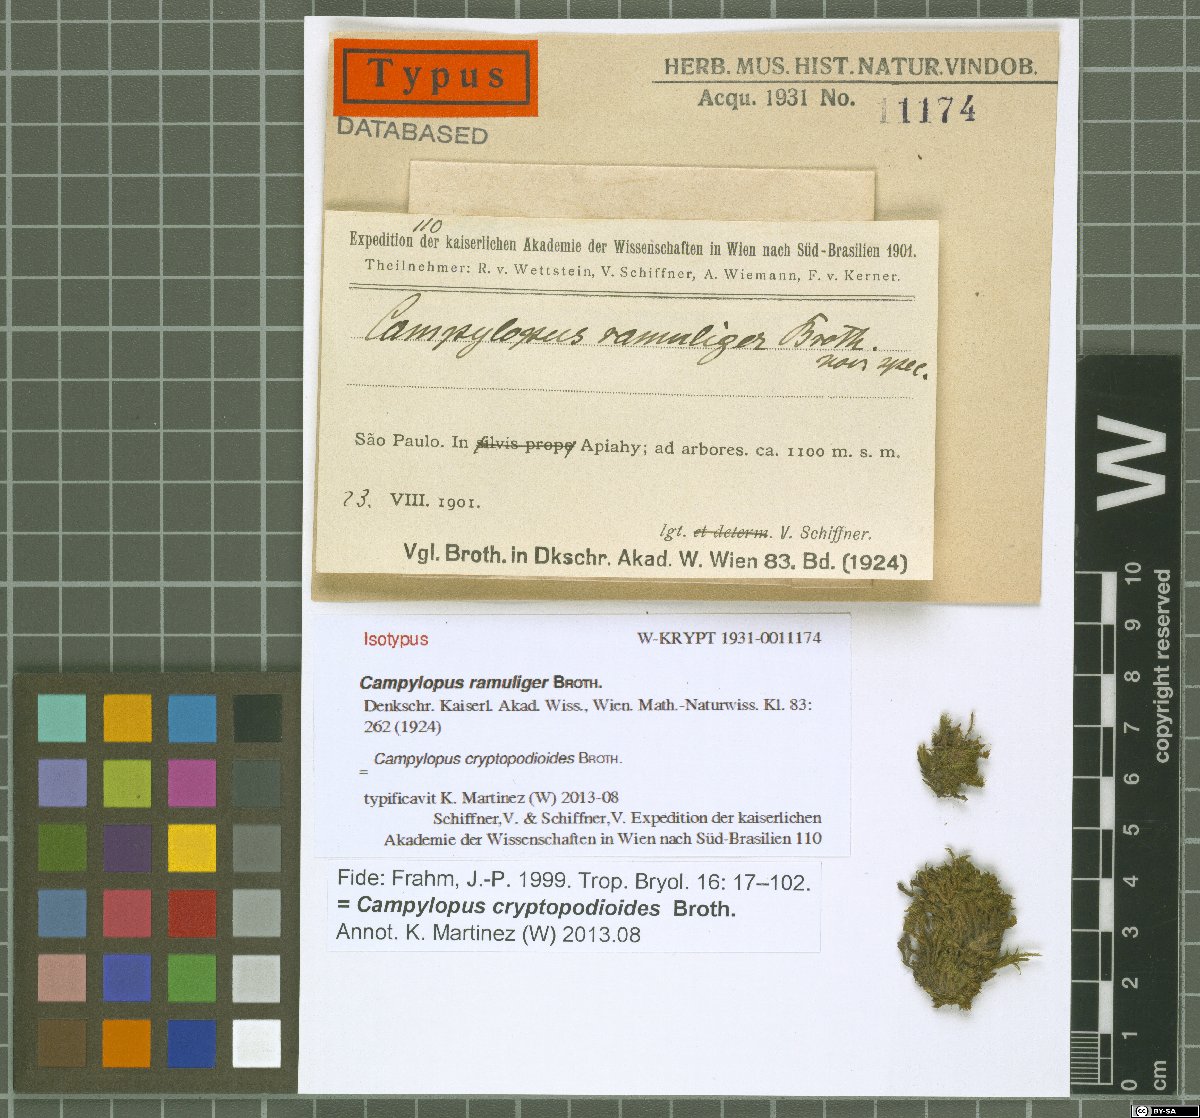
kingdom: Plantae
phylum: Bryophyta
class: Bryopsida
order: Dicranales
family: Leucobryaceae
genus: Campylopus
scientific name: Campylopus cryptopodioides
